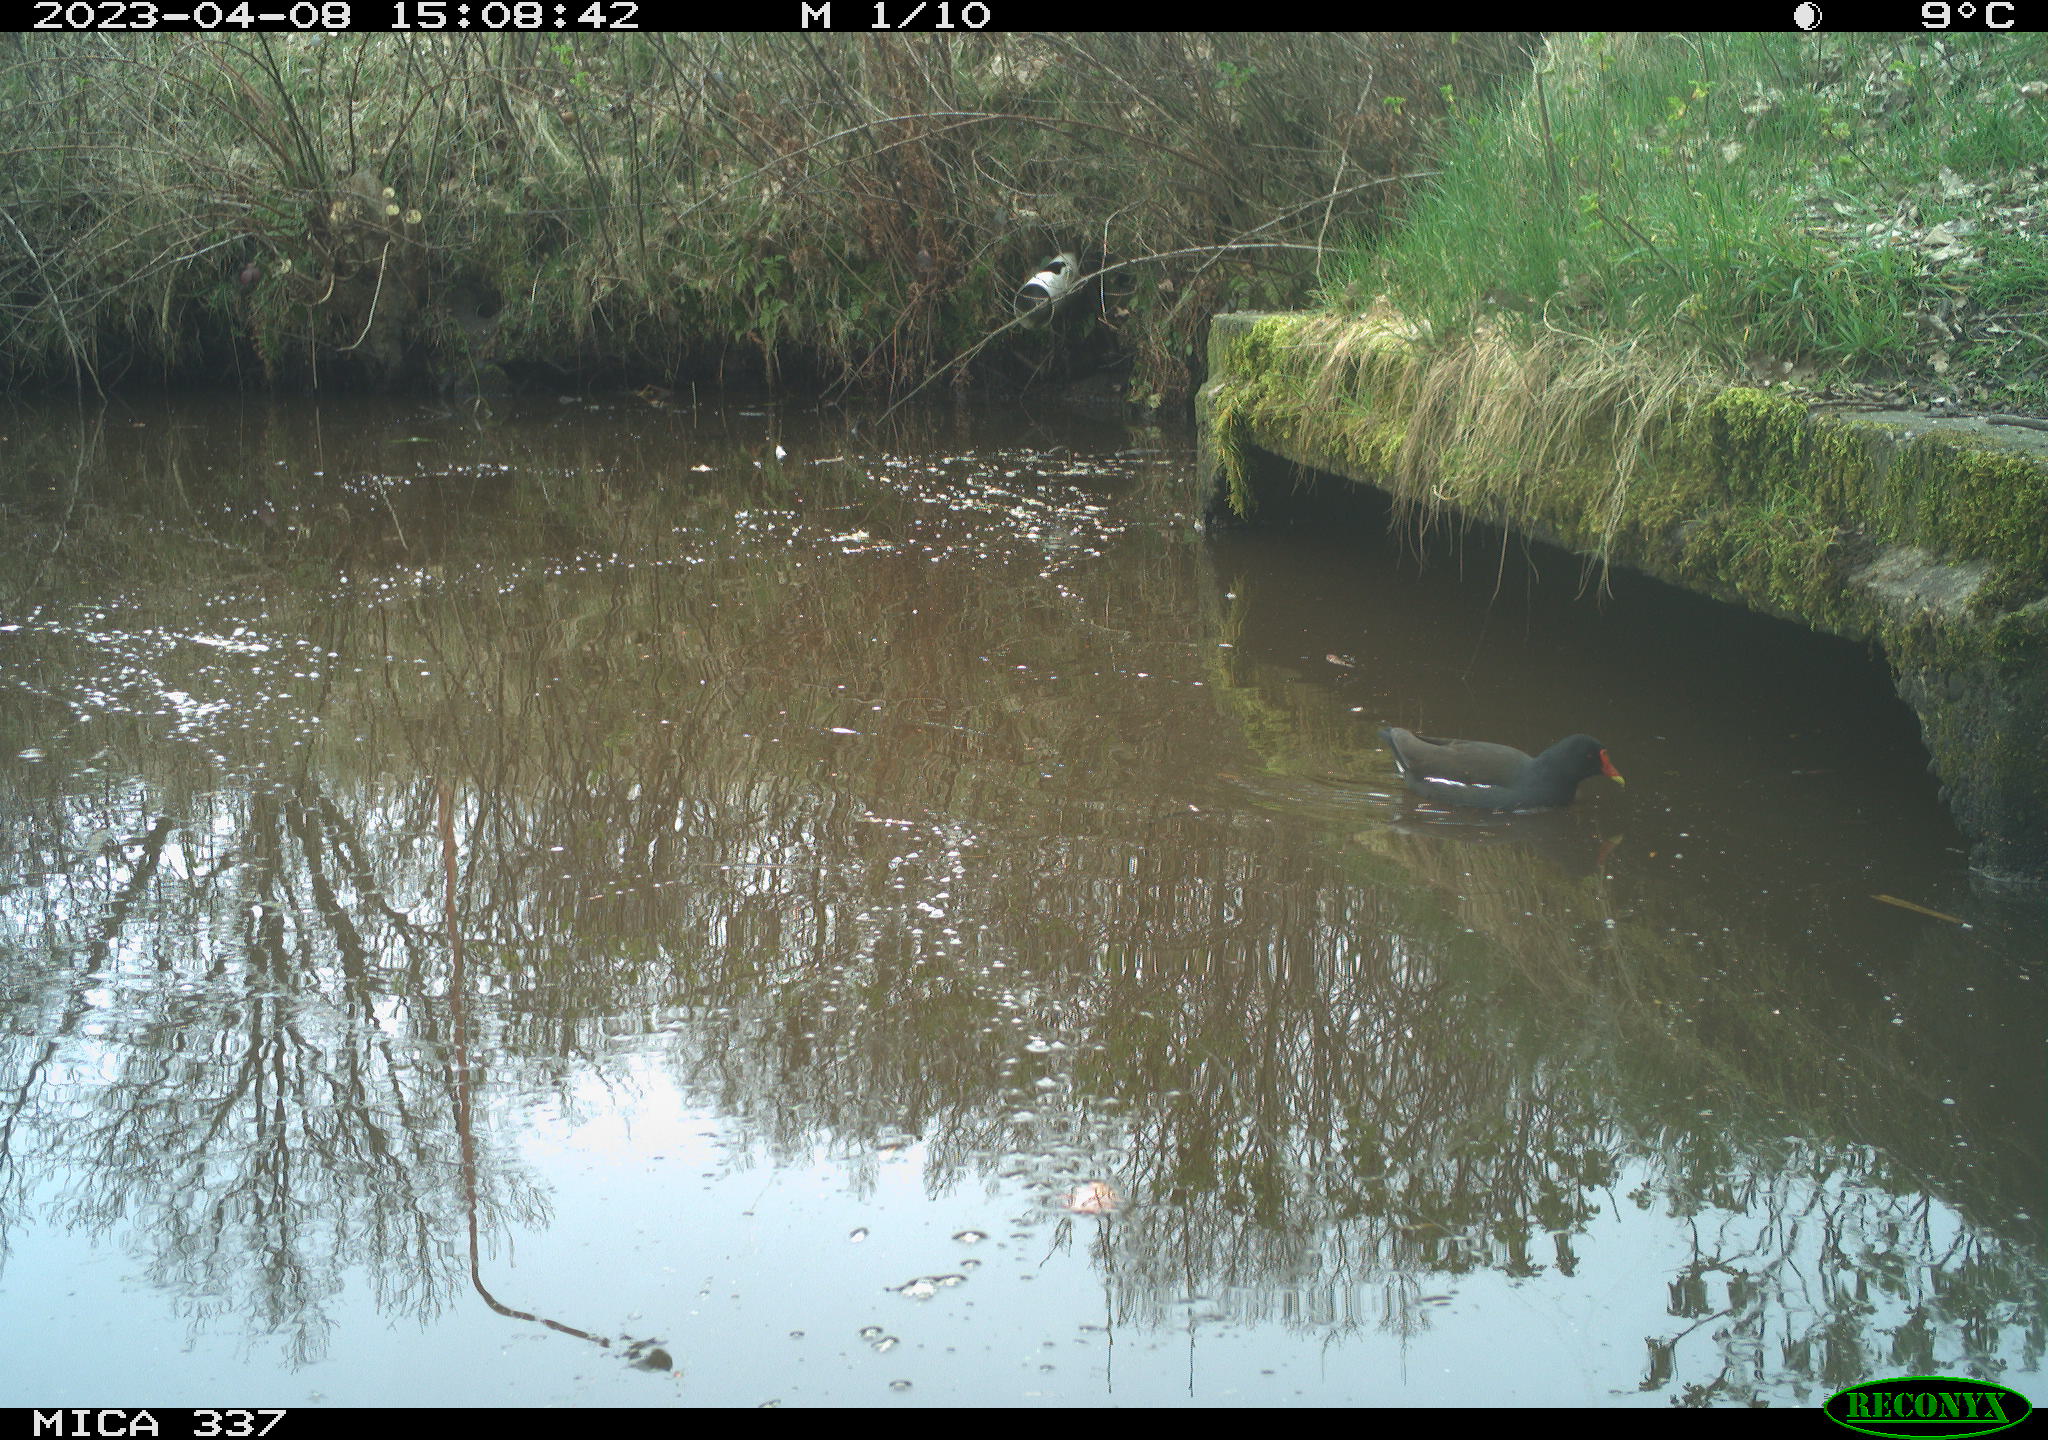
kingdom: Animalia
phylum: Chordata
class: Aves
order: Gruiformes
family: Rallidae
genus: Gallinula
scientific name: Gallinula chloropus
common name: Common moorhen
